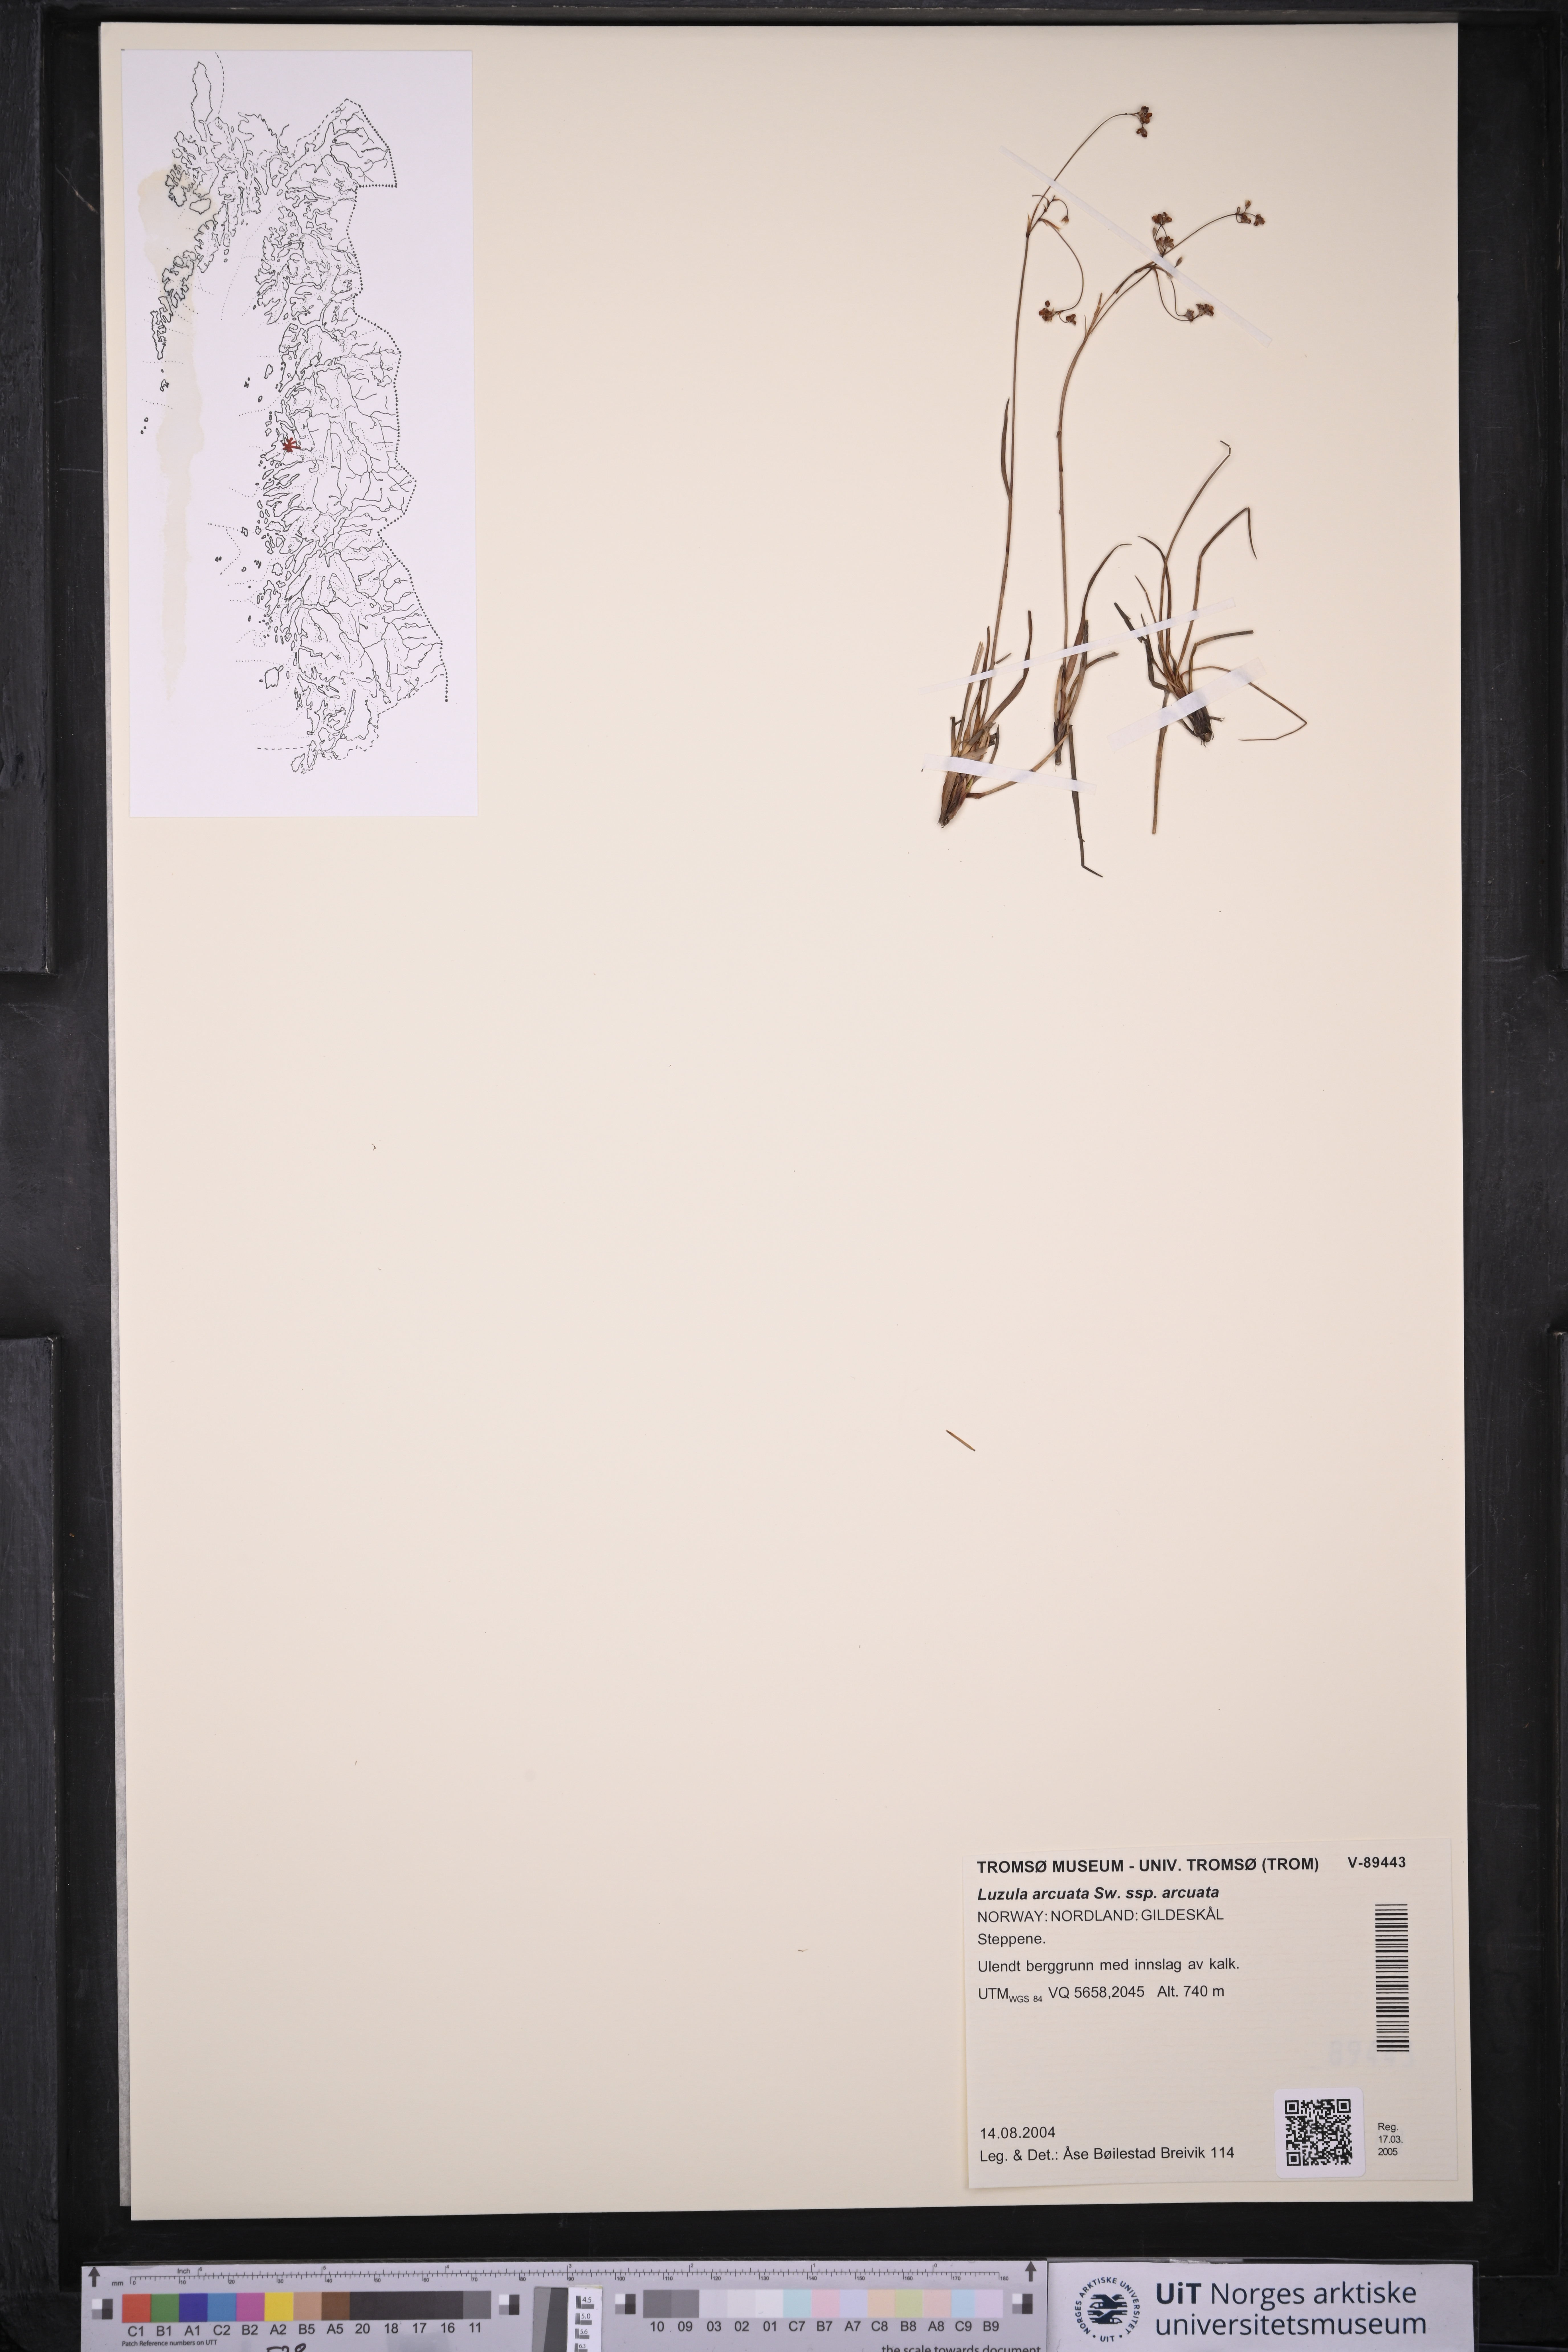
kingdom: Plantae
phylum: Tracheophyta
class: Liliopsida
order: Poales
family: Juncaceae
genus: Luzula
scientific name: Luzula arcuata
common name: Curved wood-rush
